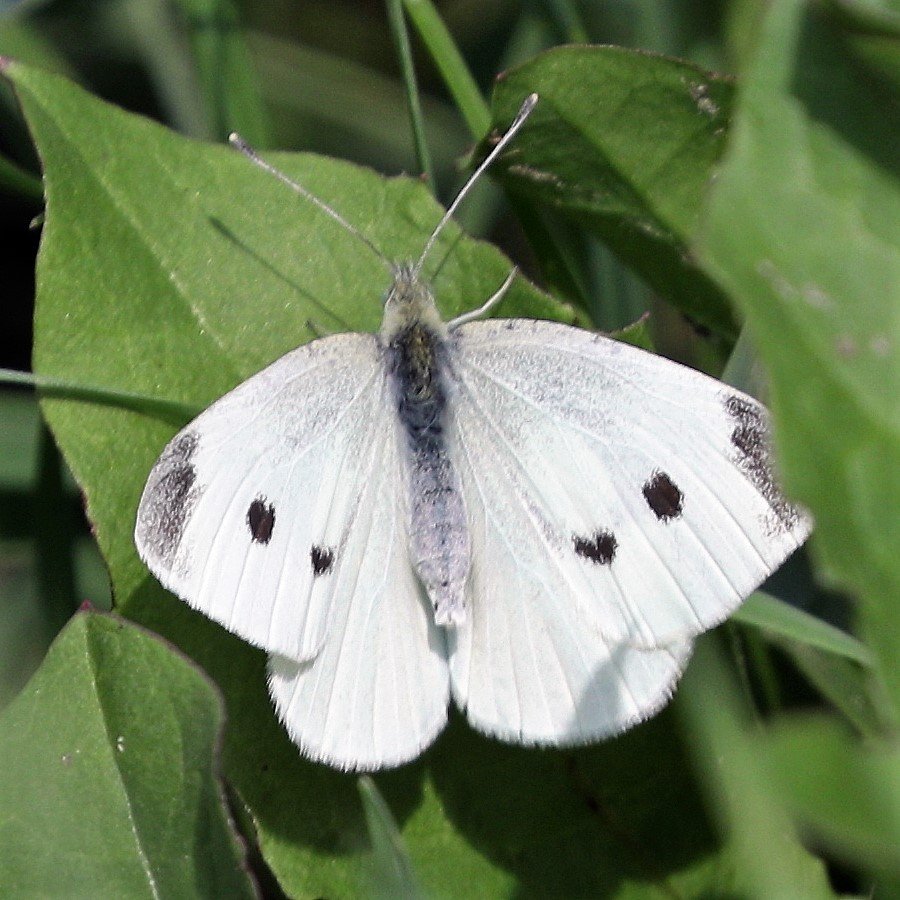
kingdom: Animalia
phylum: Arthropoda
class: Insecta
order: Lepidoptera
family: Pieridae
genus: Pieris
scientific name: Pieris rapae
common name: Cabbage White
